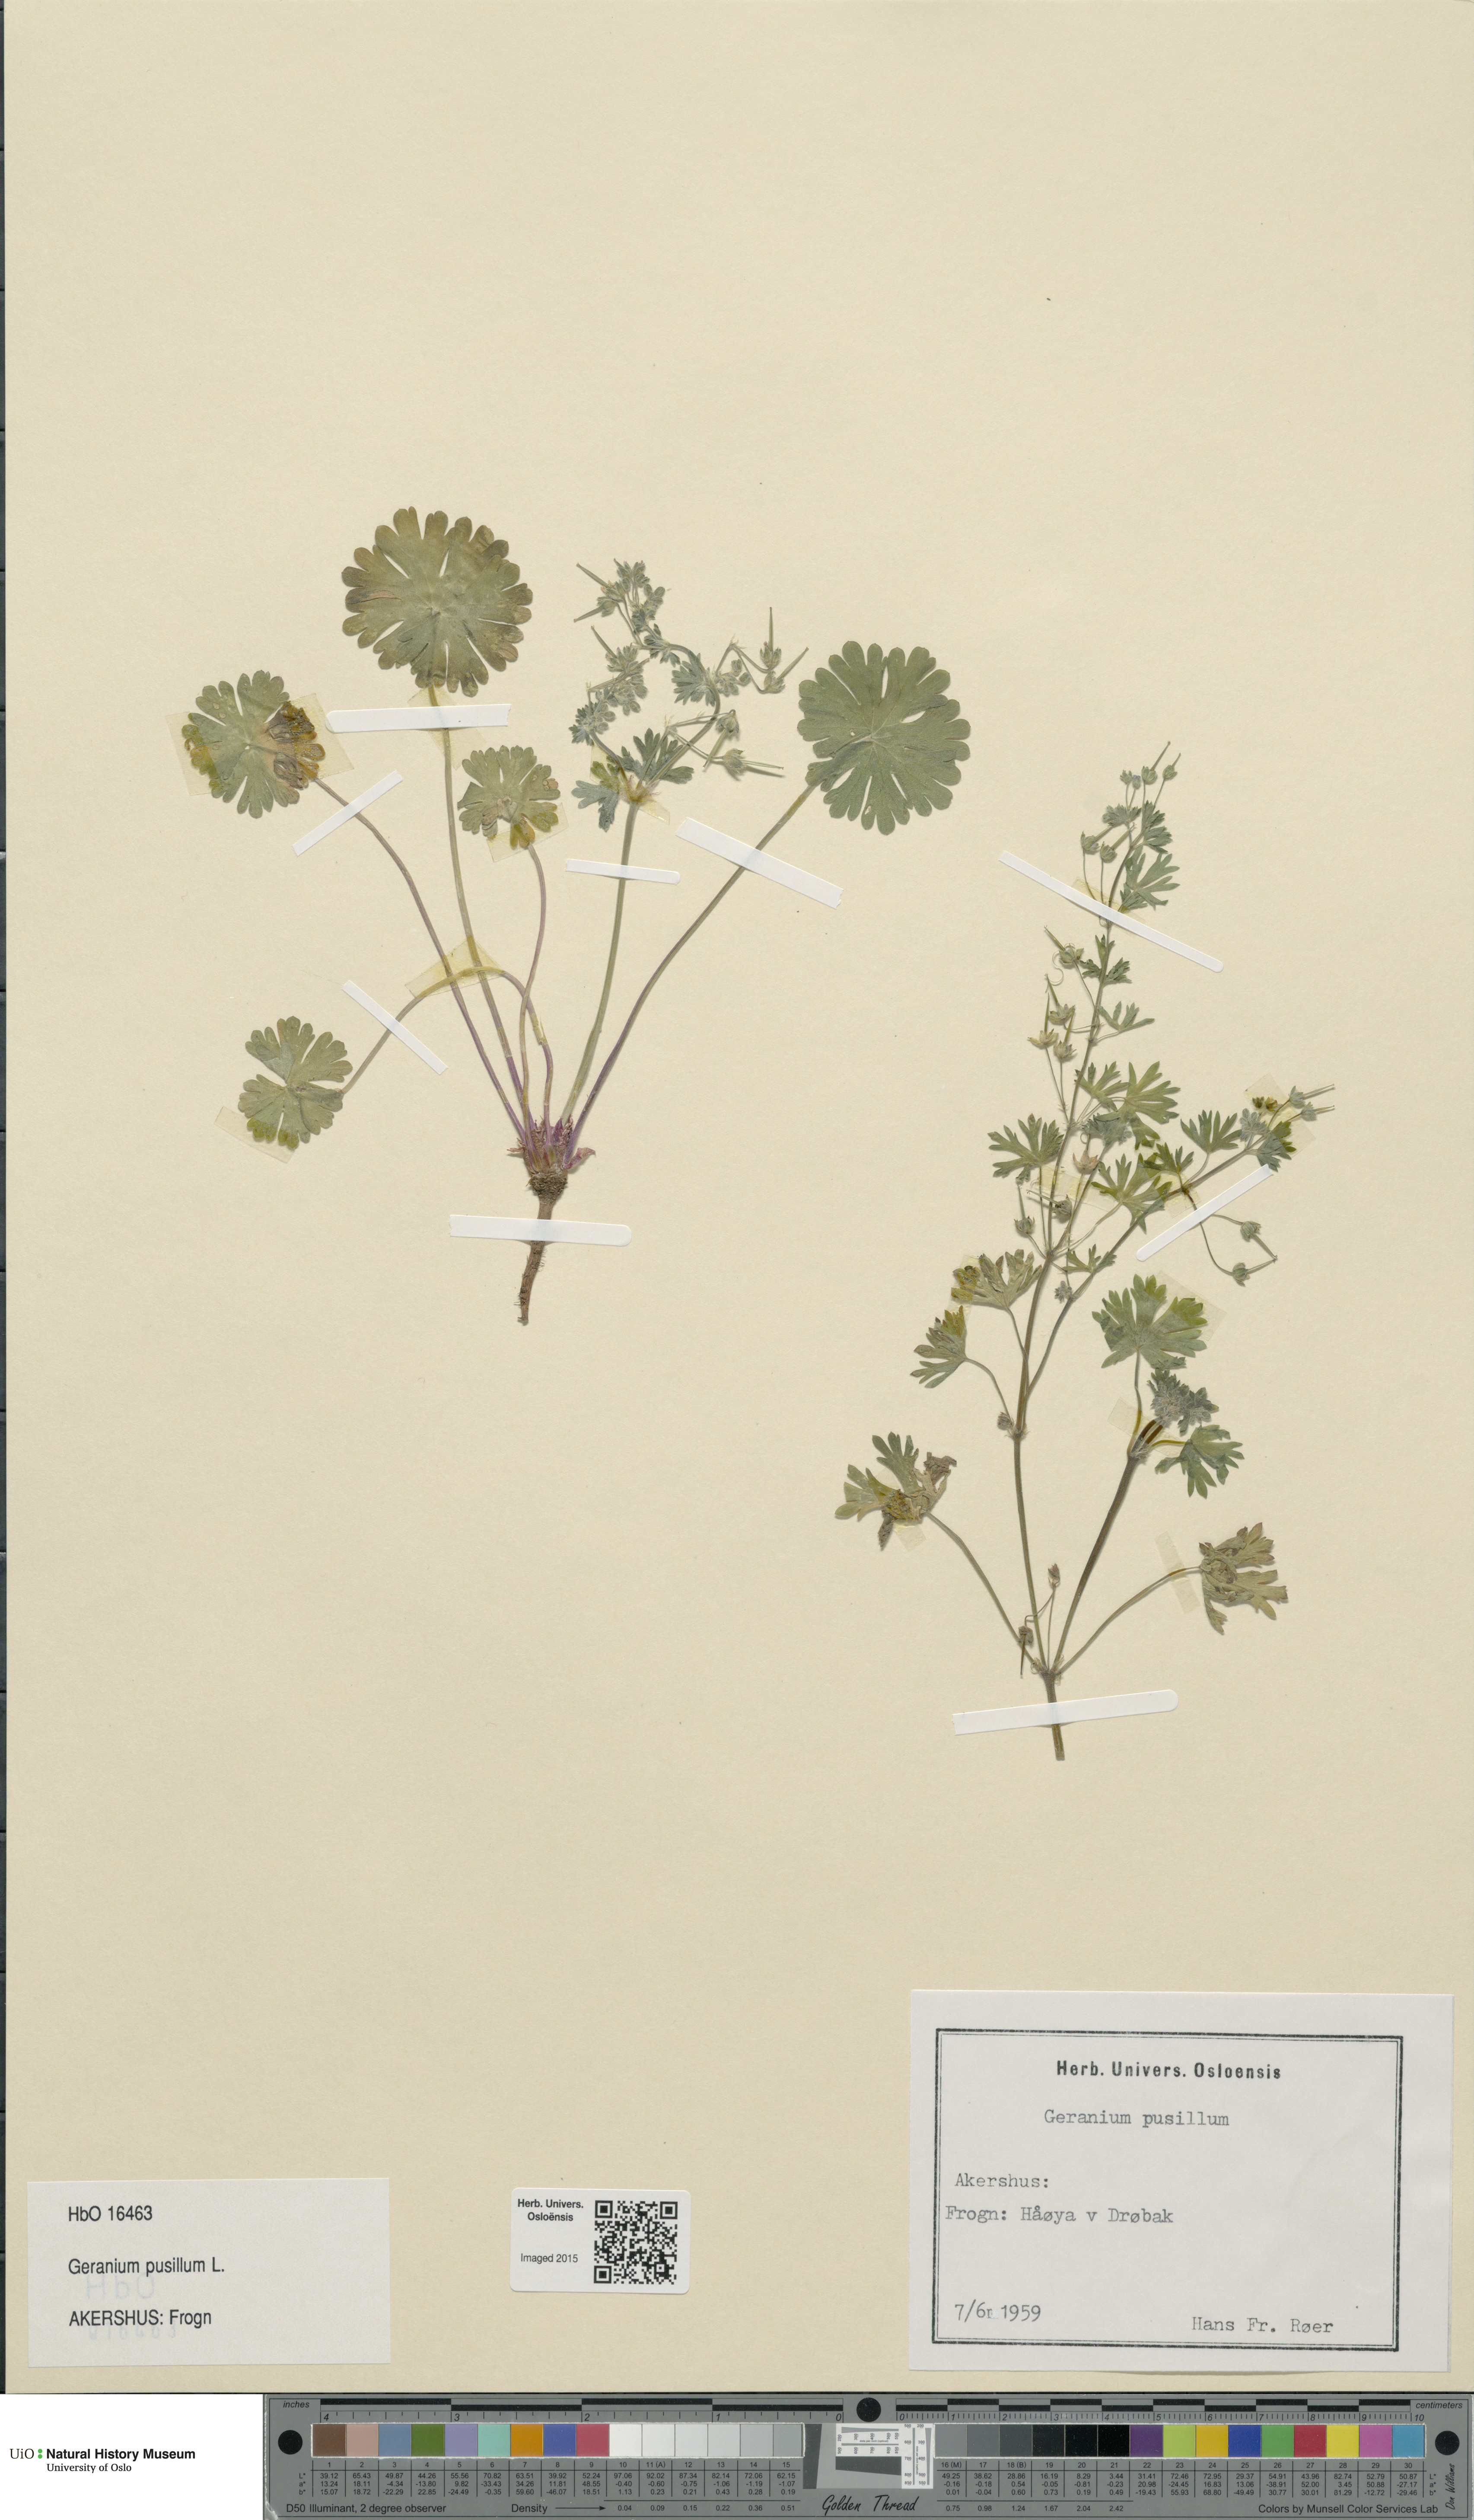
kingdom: Plantae
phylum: Tracheophyta
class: Magnoliopsida
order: Geraniales
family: Geraniaceae
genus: Geranium
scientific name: Geranium pusillum
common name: Small geranium
